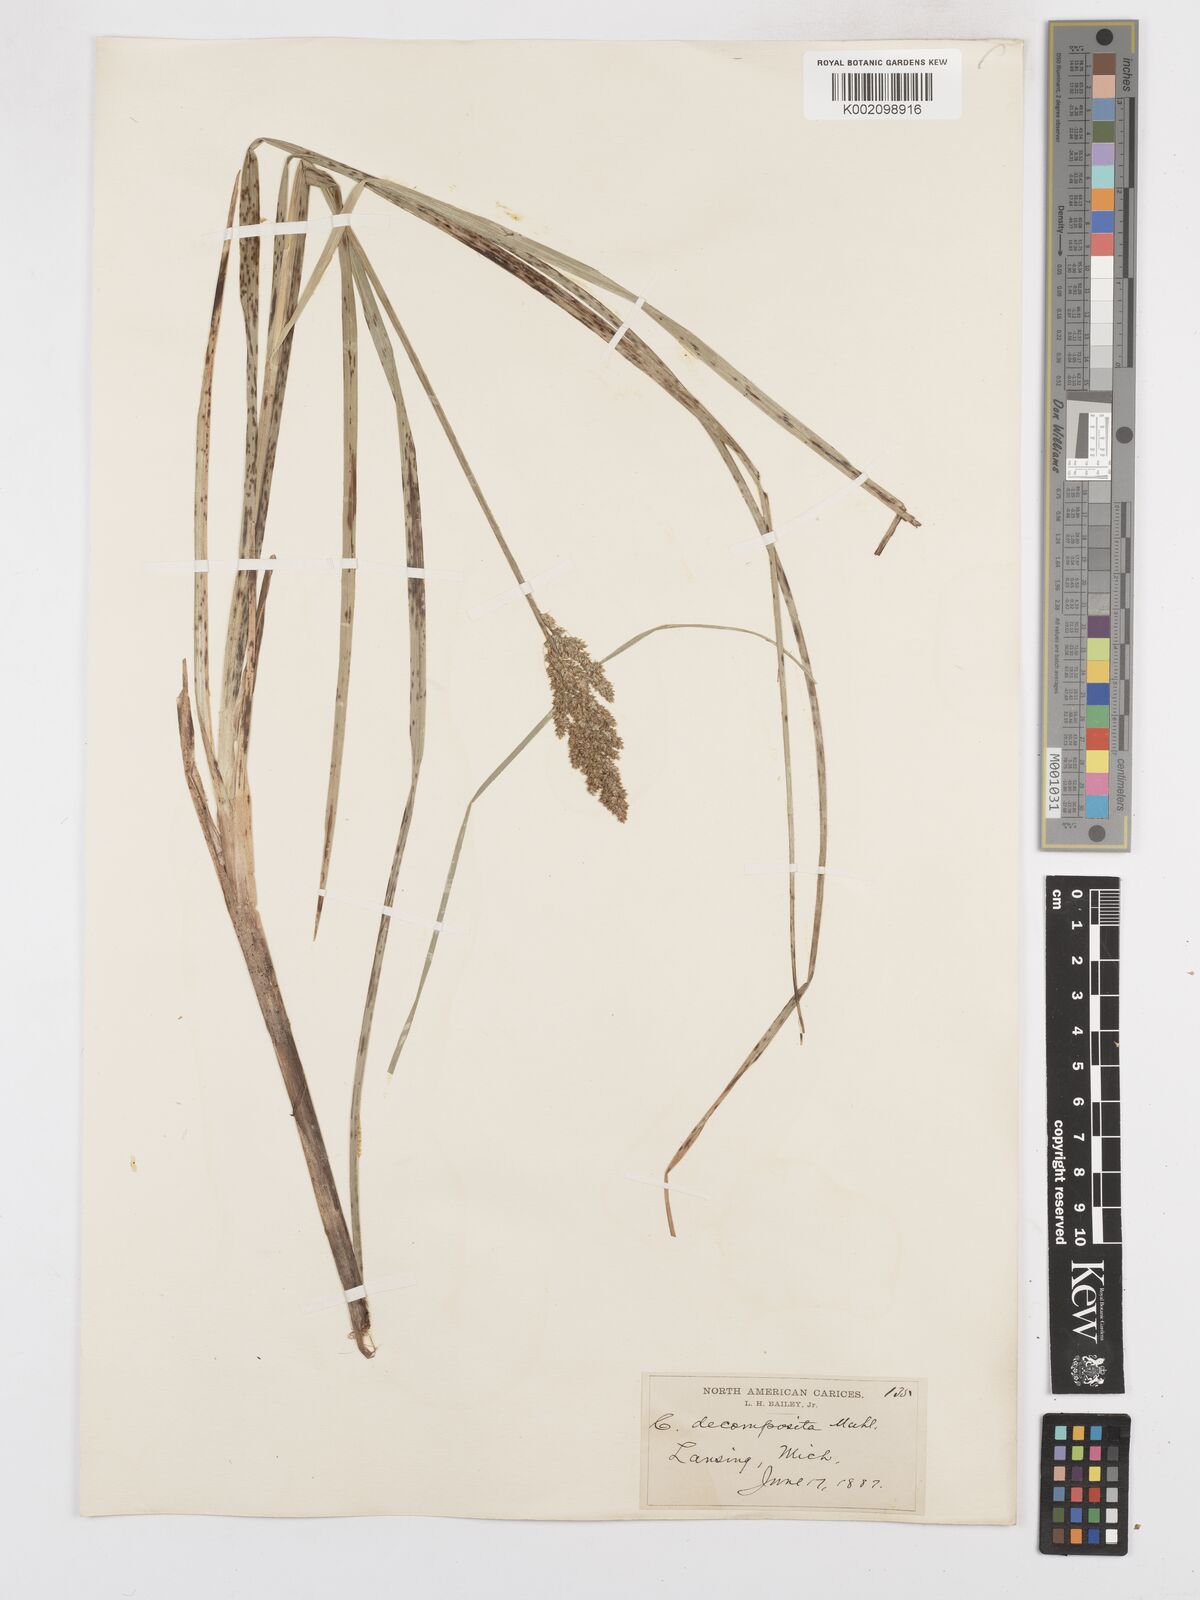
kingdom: Plantae
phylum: Tracheophyta
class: Liliopsida
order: Poales
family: Cyperaceae
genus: Carex
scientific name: Carex decomposita
